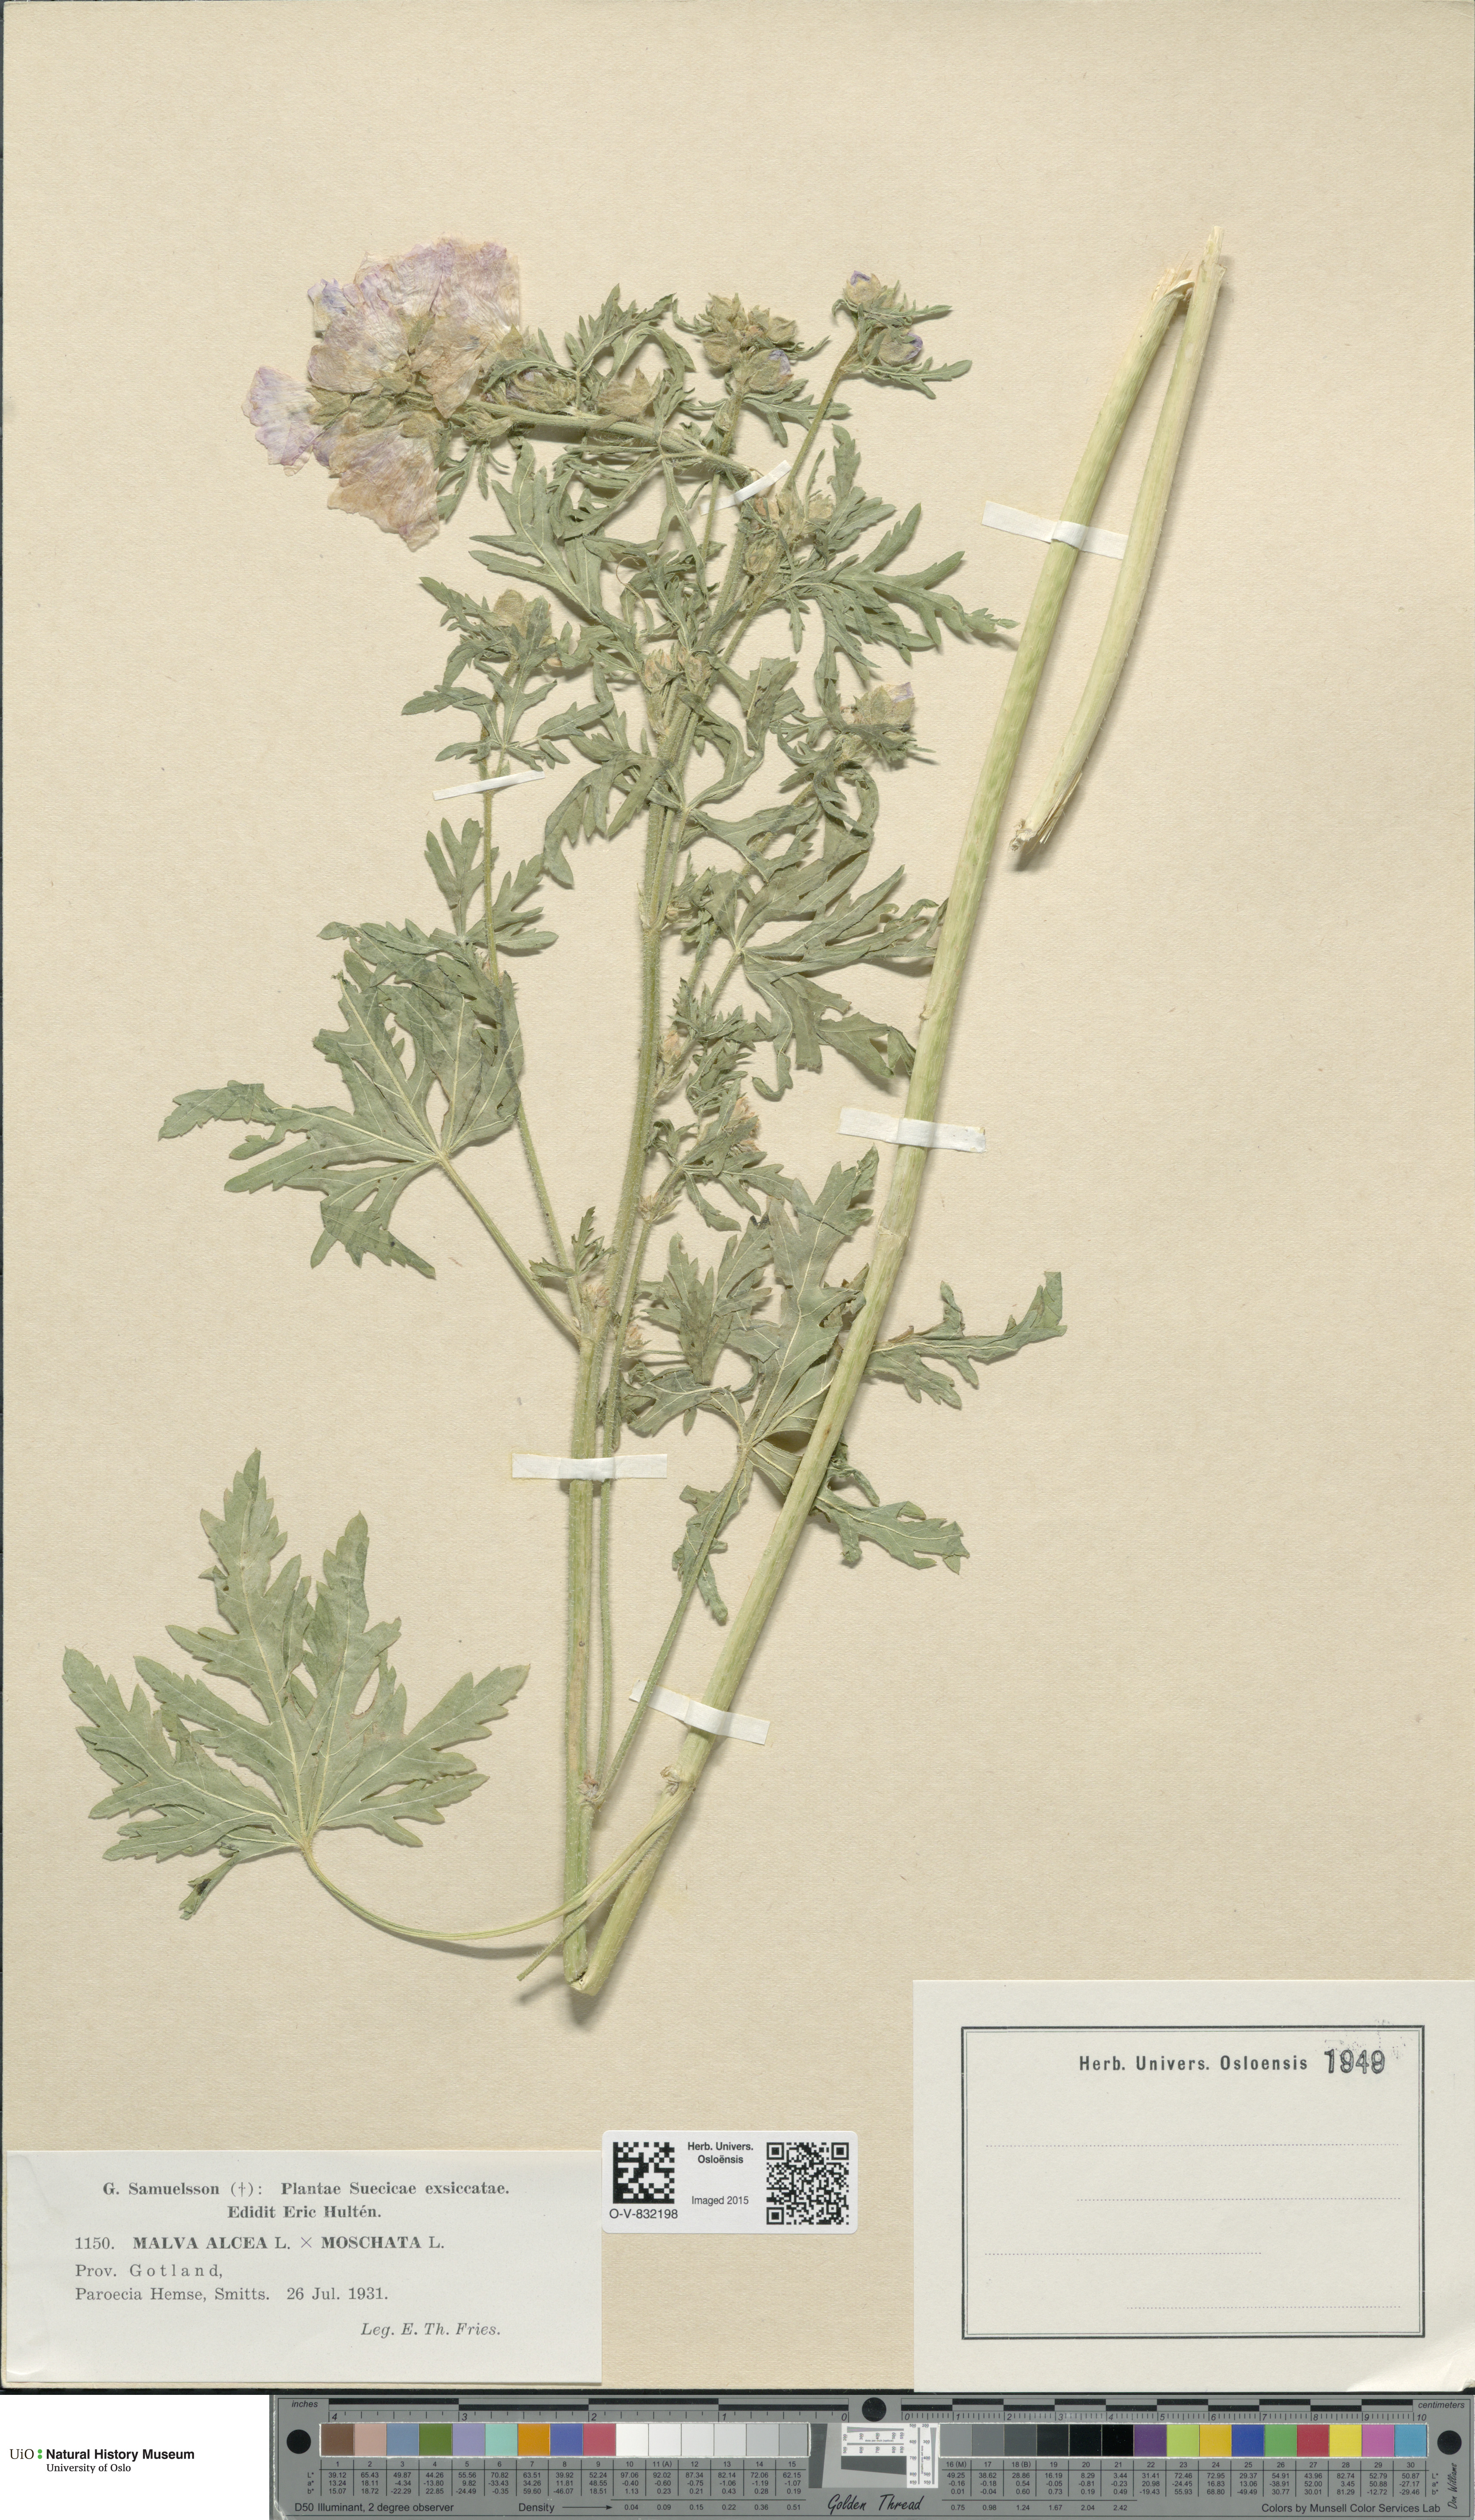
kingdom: Plantae
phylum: Tracheophyta
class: Magnoliopsida
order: Malvales
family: Malvaceae
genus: Malva
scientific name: Malva alcea
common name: Greater musk-mallow
